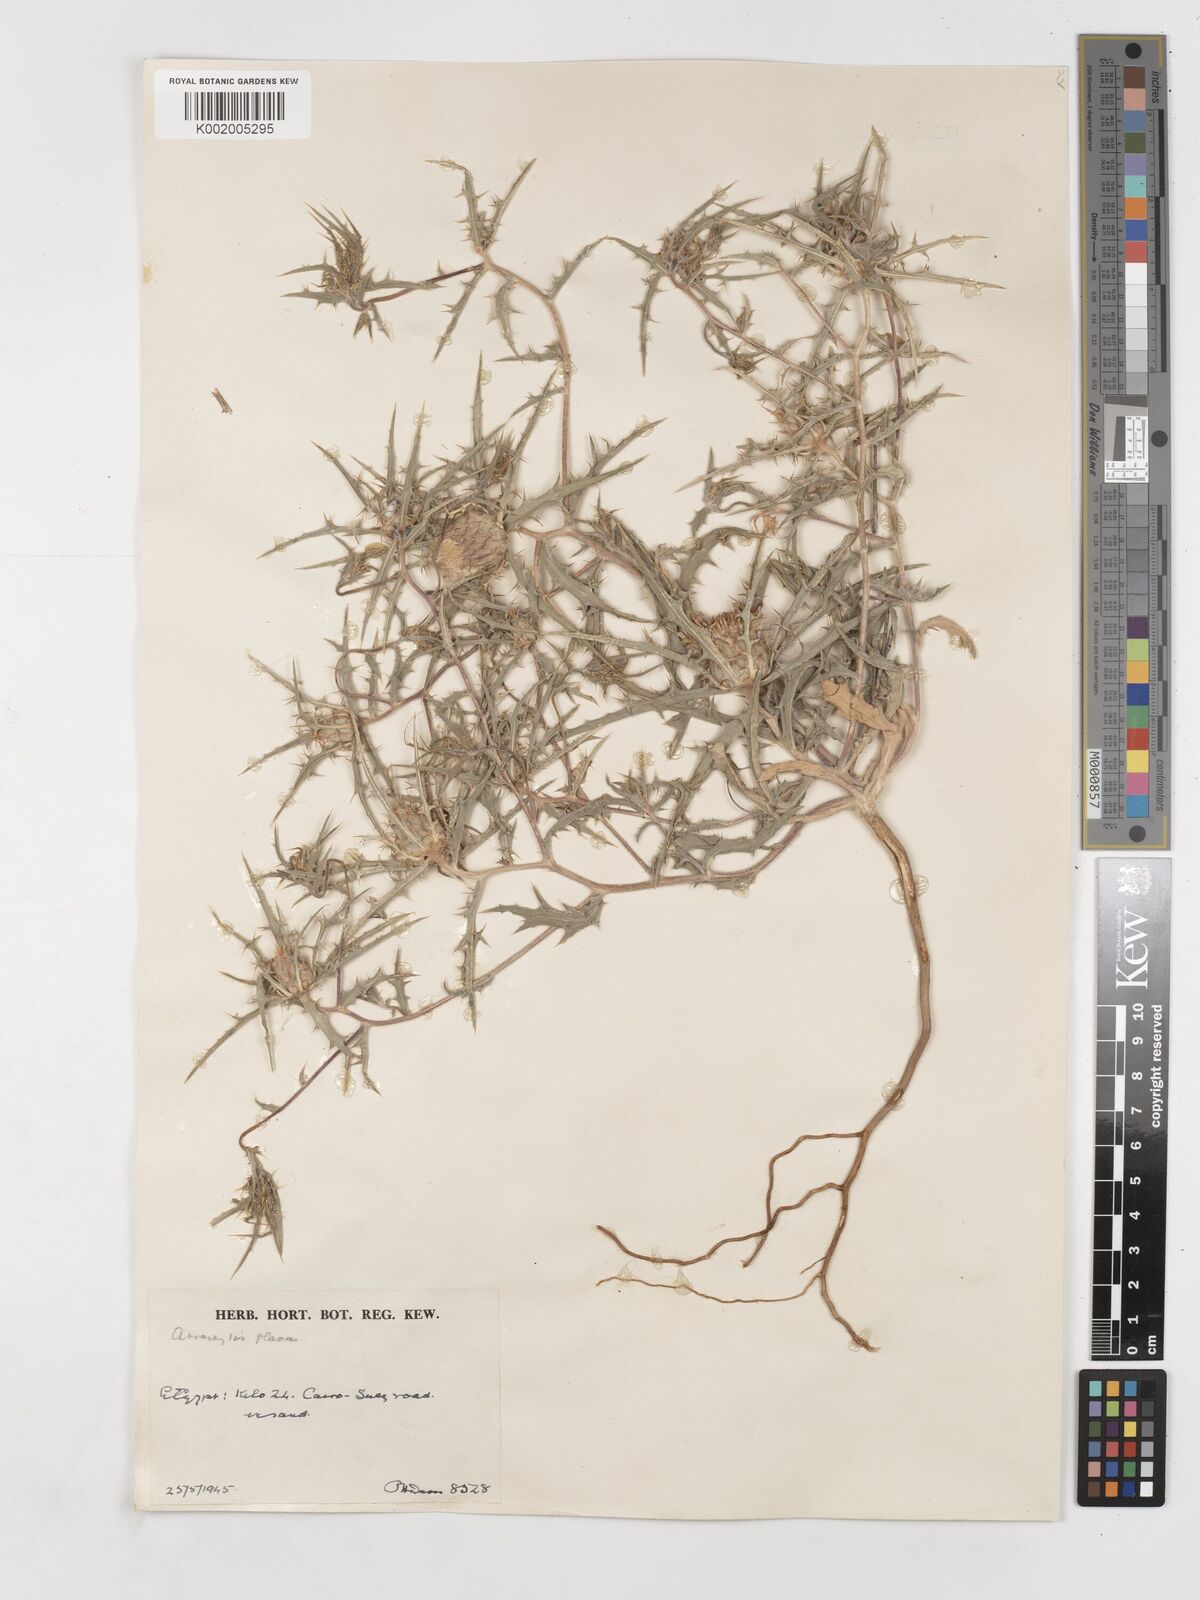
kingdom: Plantae
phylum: Tracheophyta
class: Magnoliopsida
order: Asterales
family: Asteraceae
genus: Atractylis
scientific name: Atractylis carduus
